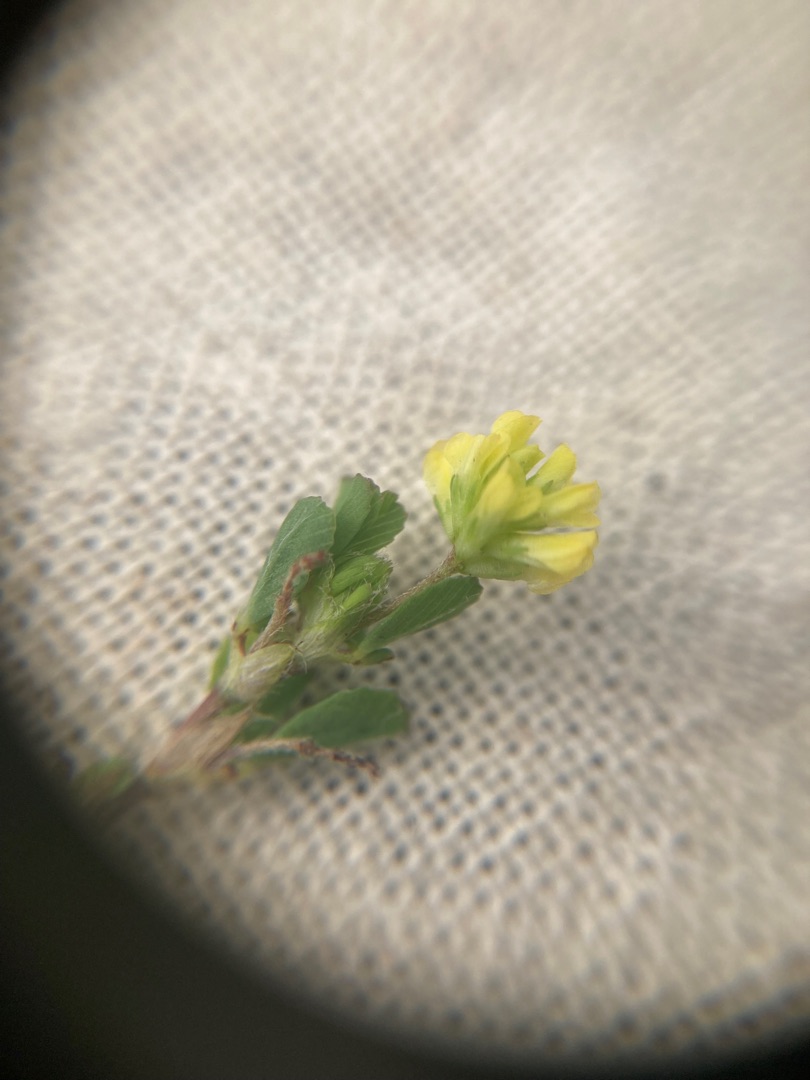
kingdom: Plantae
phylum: Tracheophyta
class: Magnoliopsida
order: Fabales
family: Fabaceae
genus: Trifolium
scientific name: Trifolium dubium
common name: Fin kløver
